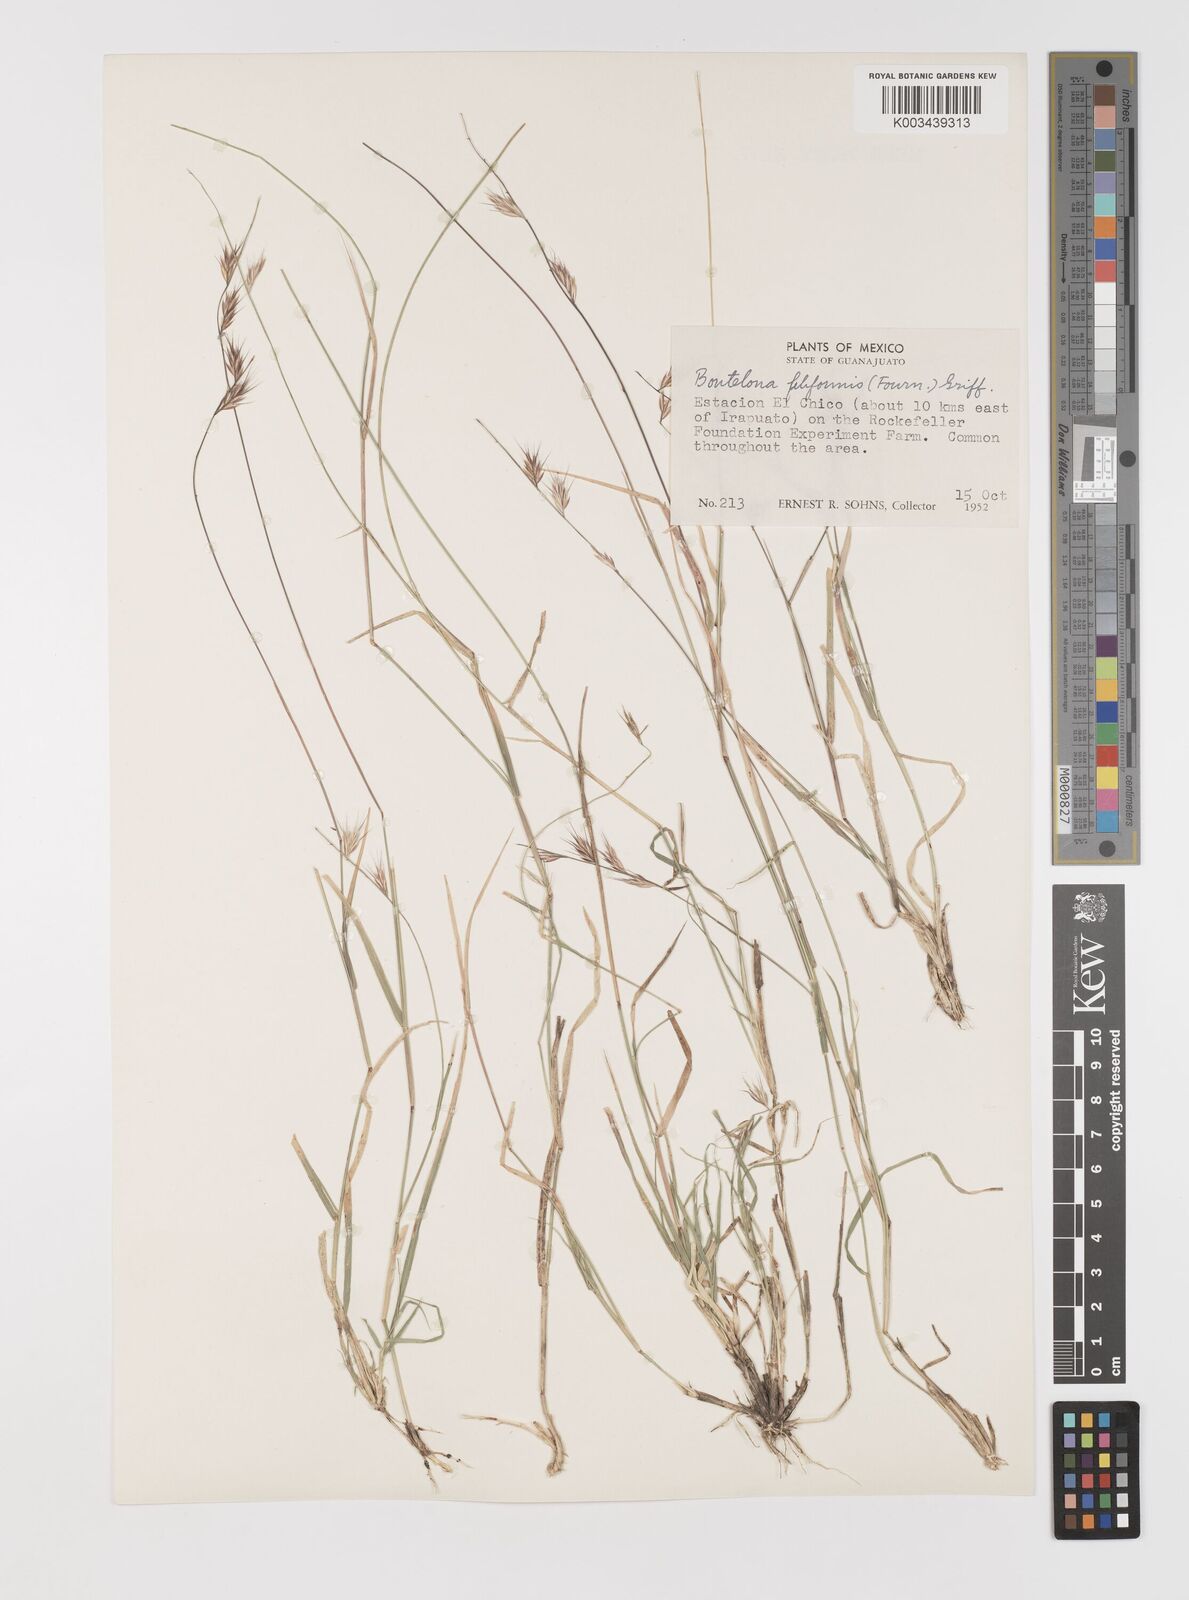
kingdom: Plantae
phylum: Tracheophyta
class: Liliopsida
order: Poales
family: Poaceae
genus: Bouteloua
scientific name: Bouteloua repens
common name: Slender grama
